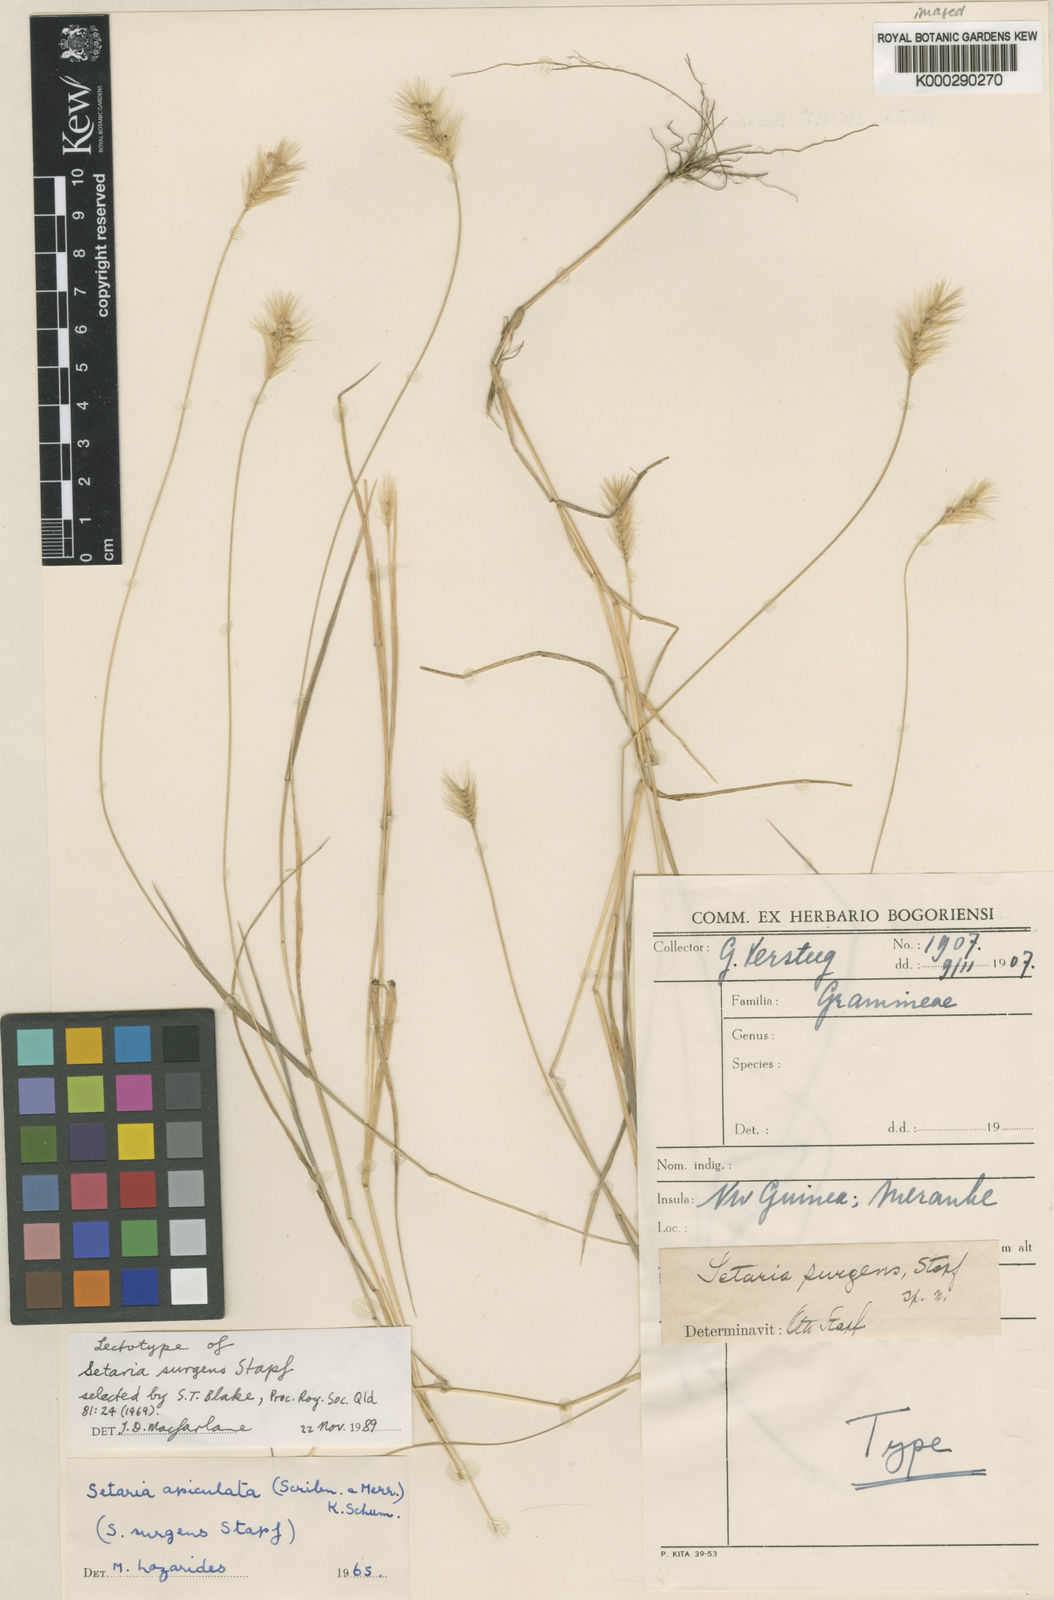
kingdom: Plantae
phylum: Tracheophyta
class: Liliopsida
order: Poales
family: Poaceae
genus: Setaria
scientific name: Setaria surgens
